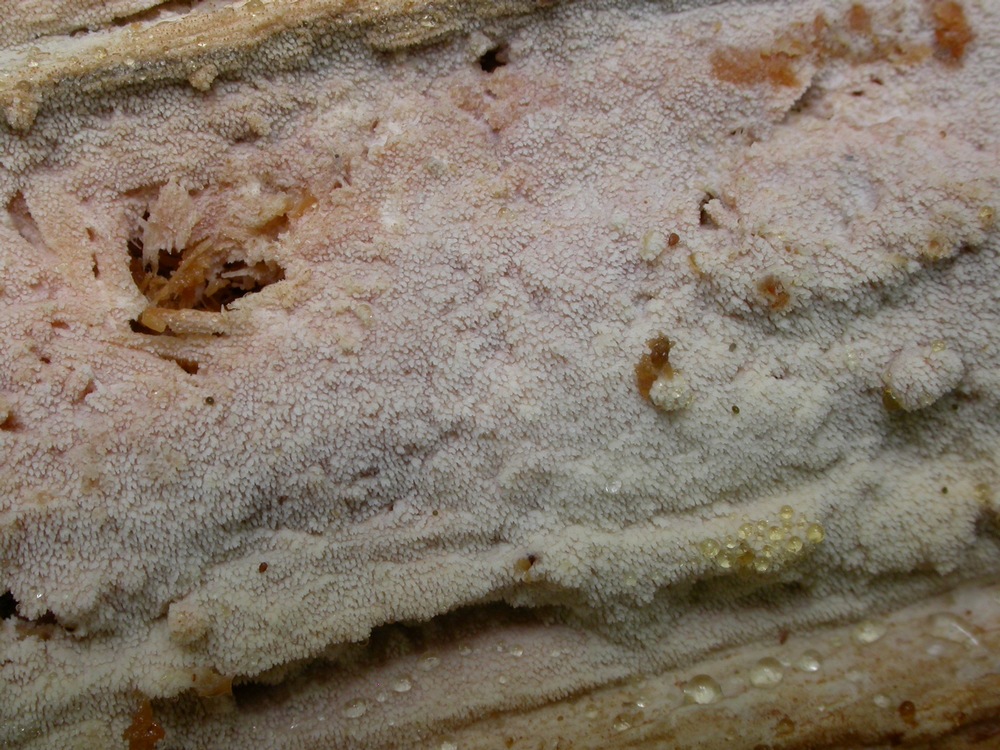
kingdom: Fungi
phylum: Basidiomycota
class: Agaricomycetes
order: Hymenochaetales
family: Rickenellaceae
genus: Resinicium
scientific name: Resinicium bicolor
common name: almindelig vokstand
